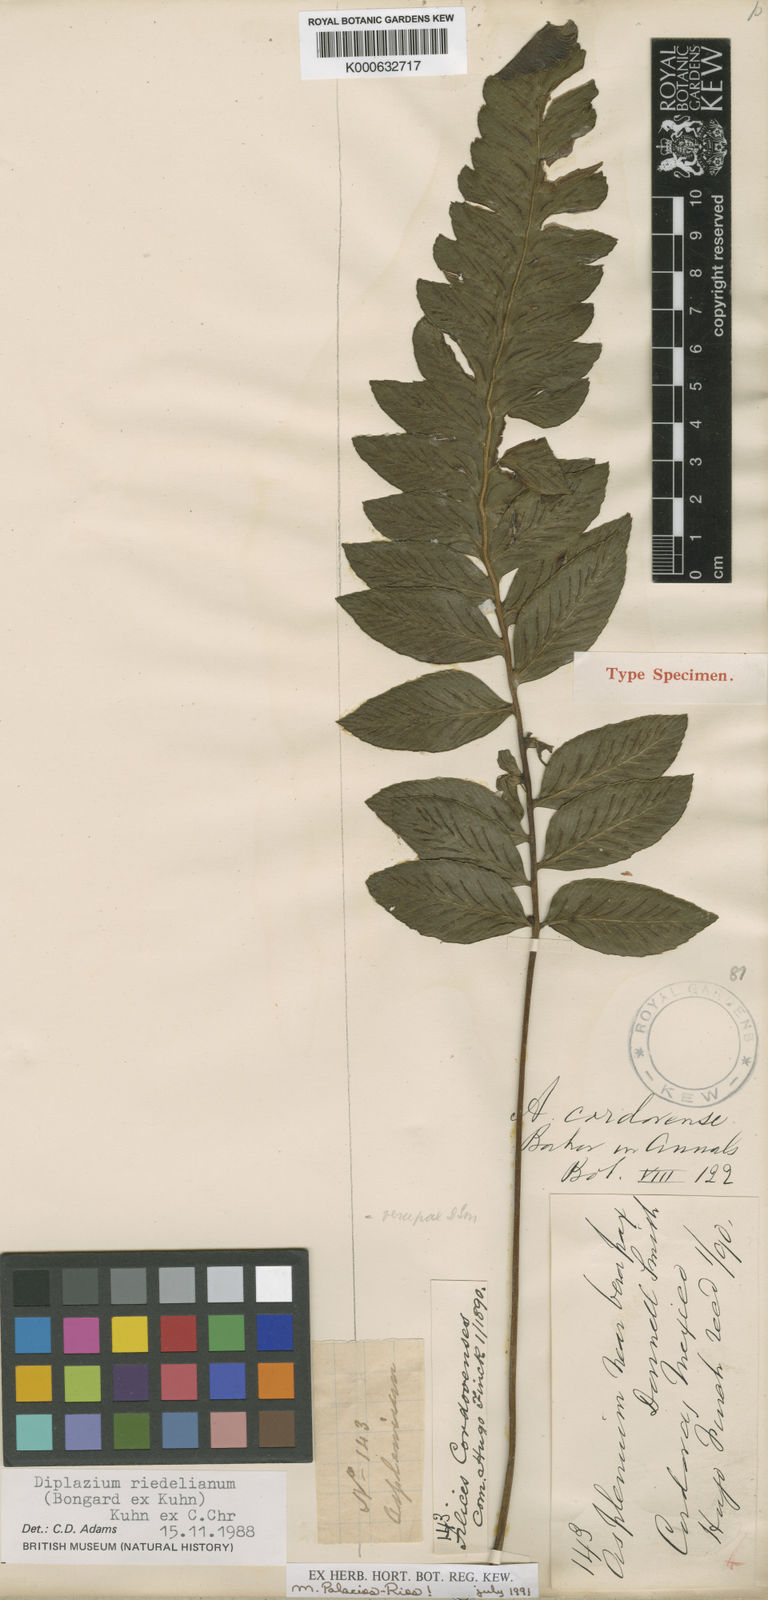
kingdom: Plantae
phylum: Tracheophyta
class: Polypodiopsida
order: Polypodiales
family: Athyriaceae
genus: Diplazium
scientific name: Diplazium riedelianum
